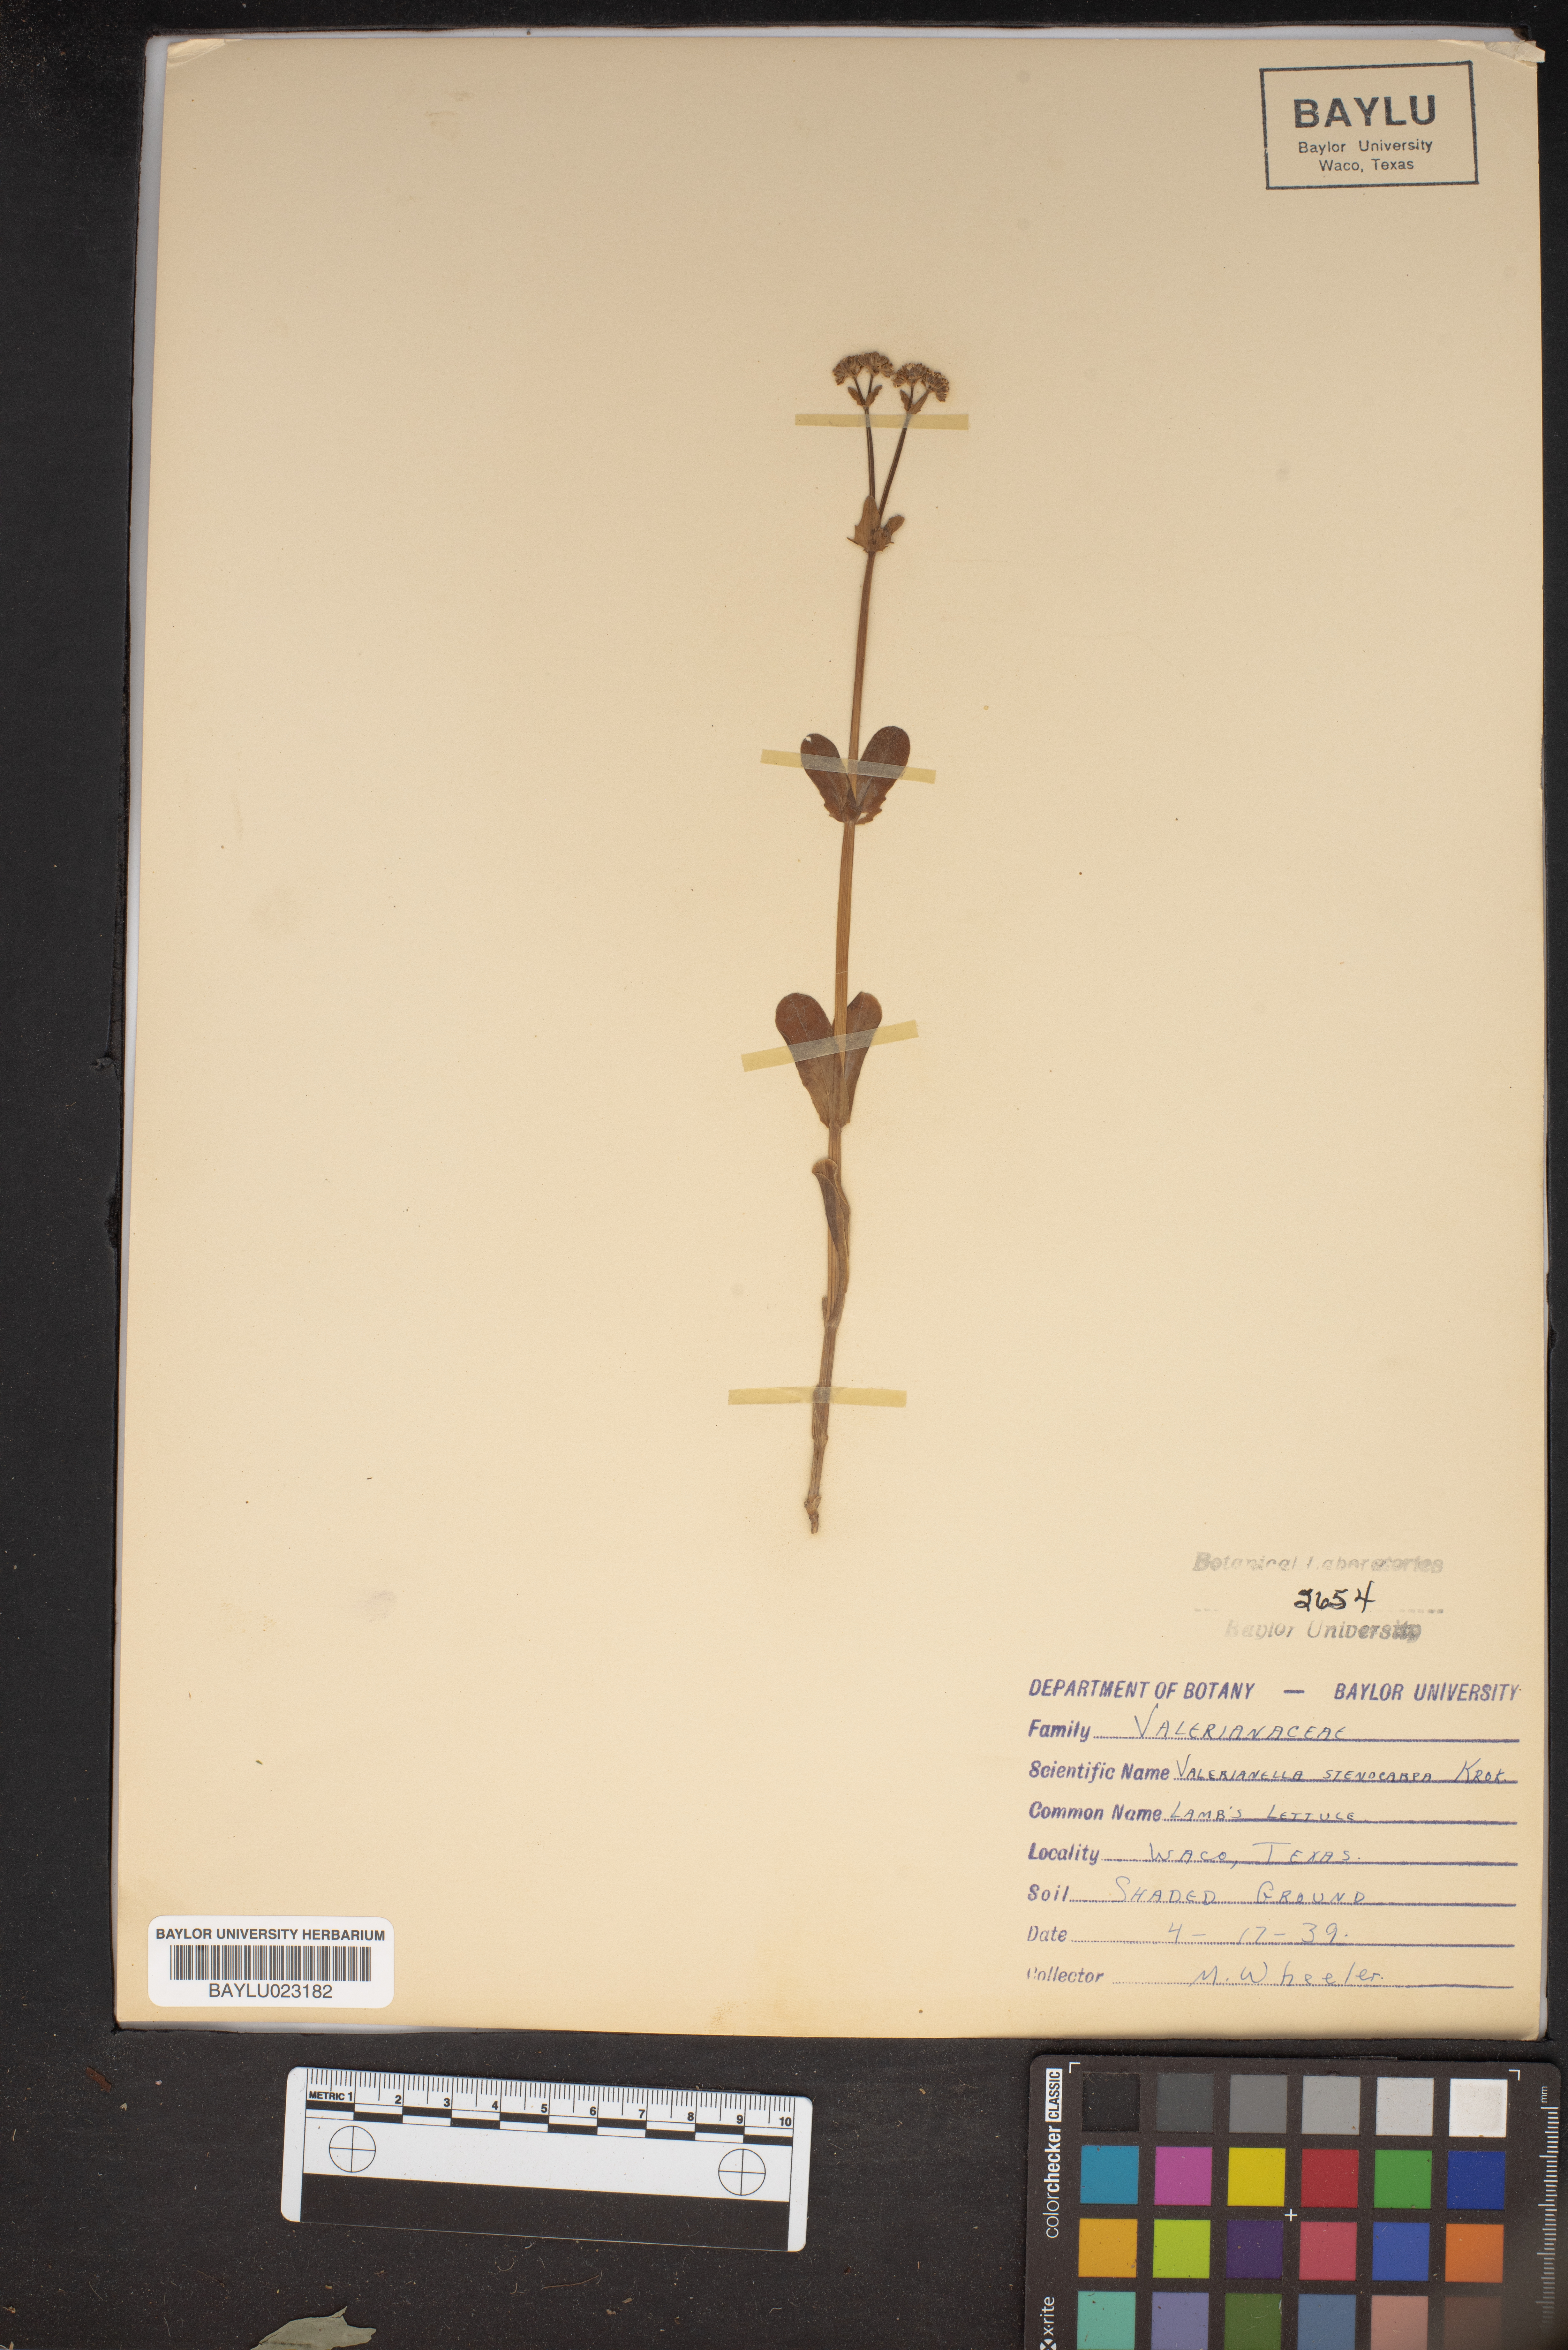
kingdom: Plantae
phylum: Tracheophyta
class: Magnoliopsida
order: Dipsacales
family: Caprifoliaceae
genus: Valerianella
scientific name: Valerianella stenocarpa
